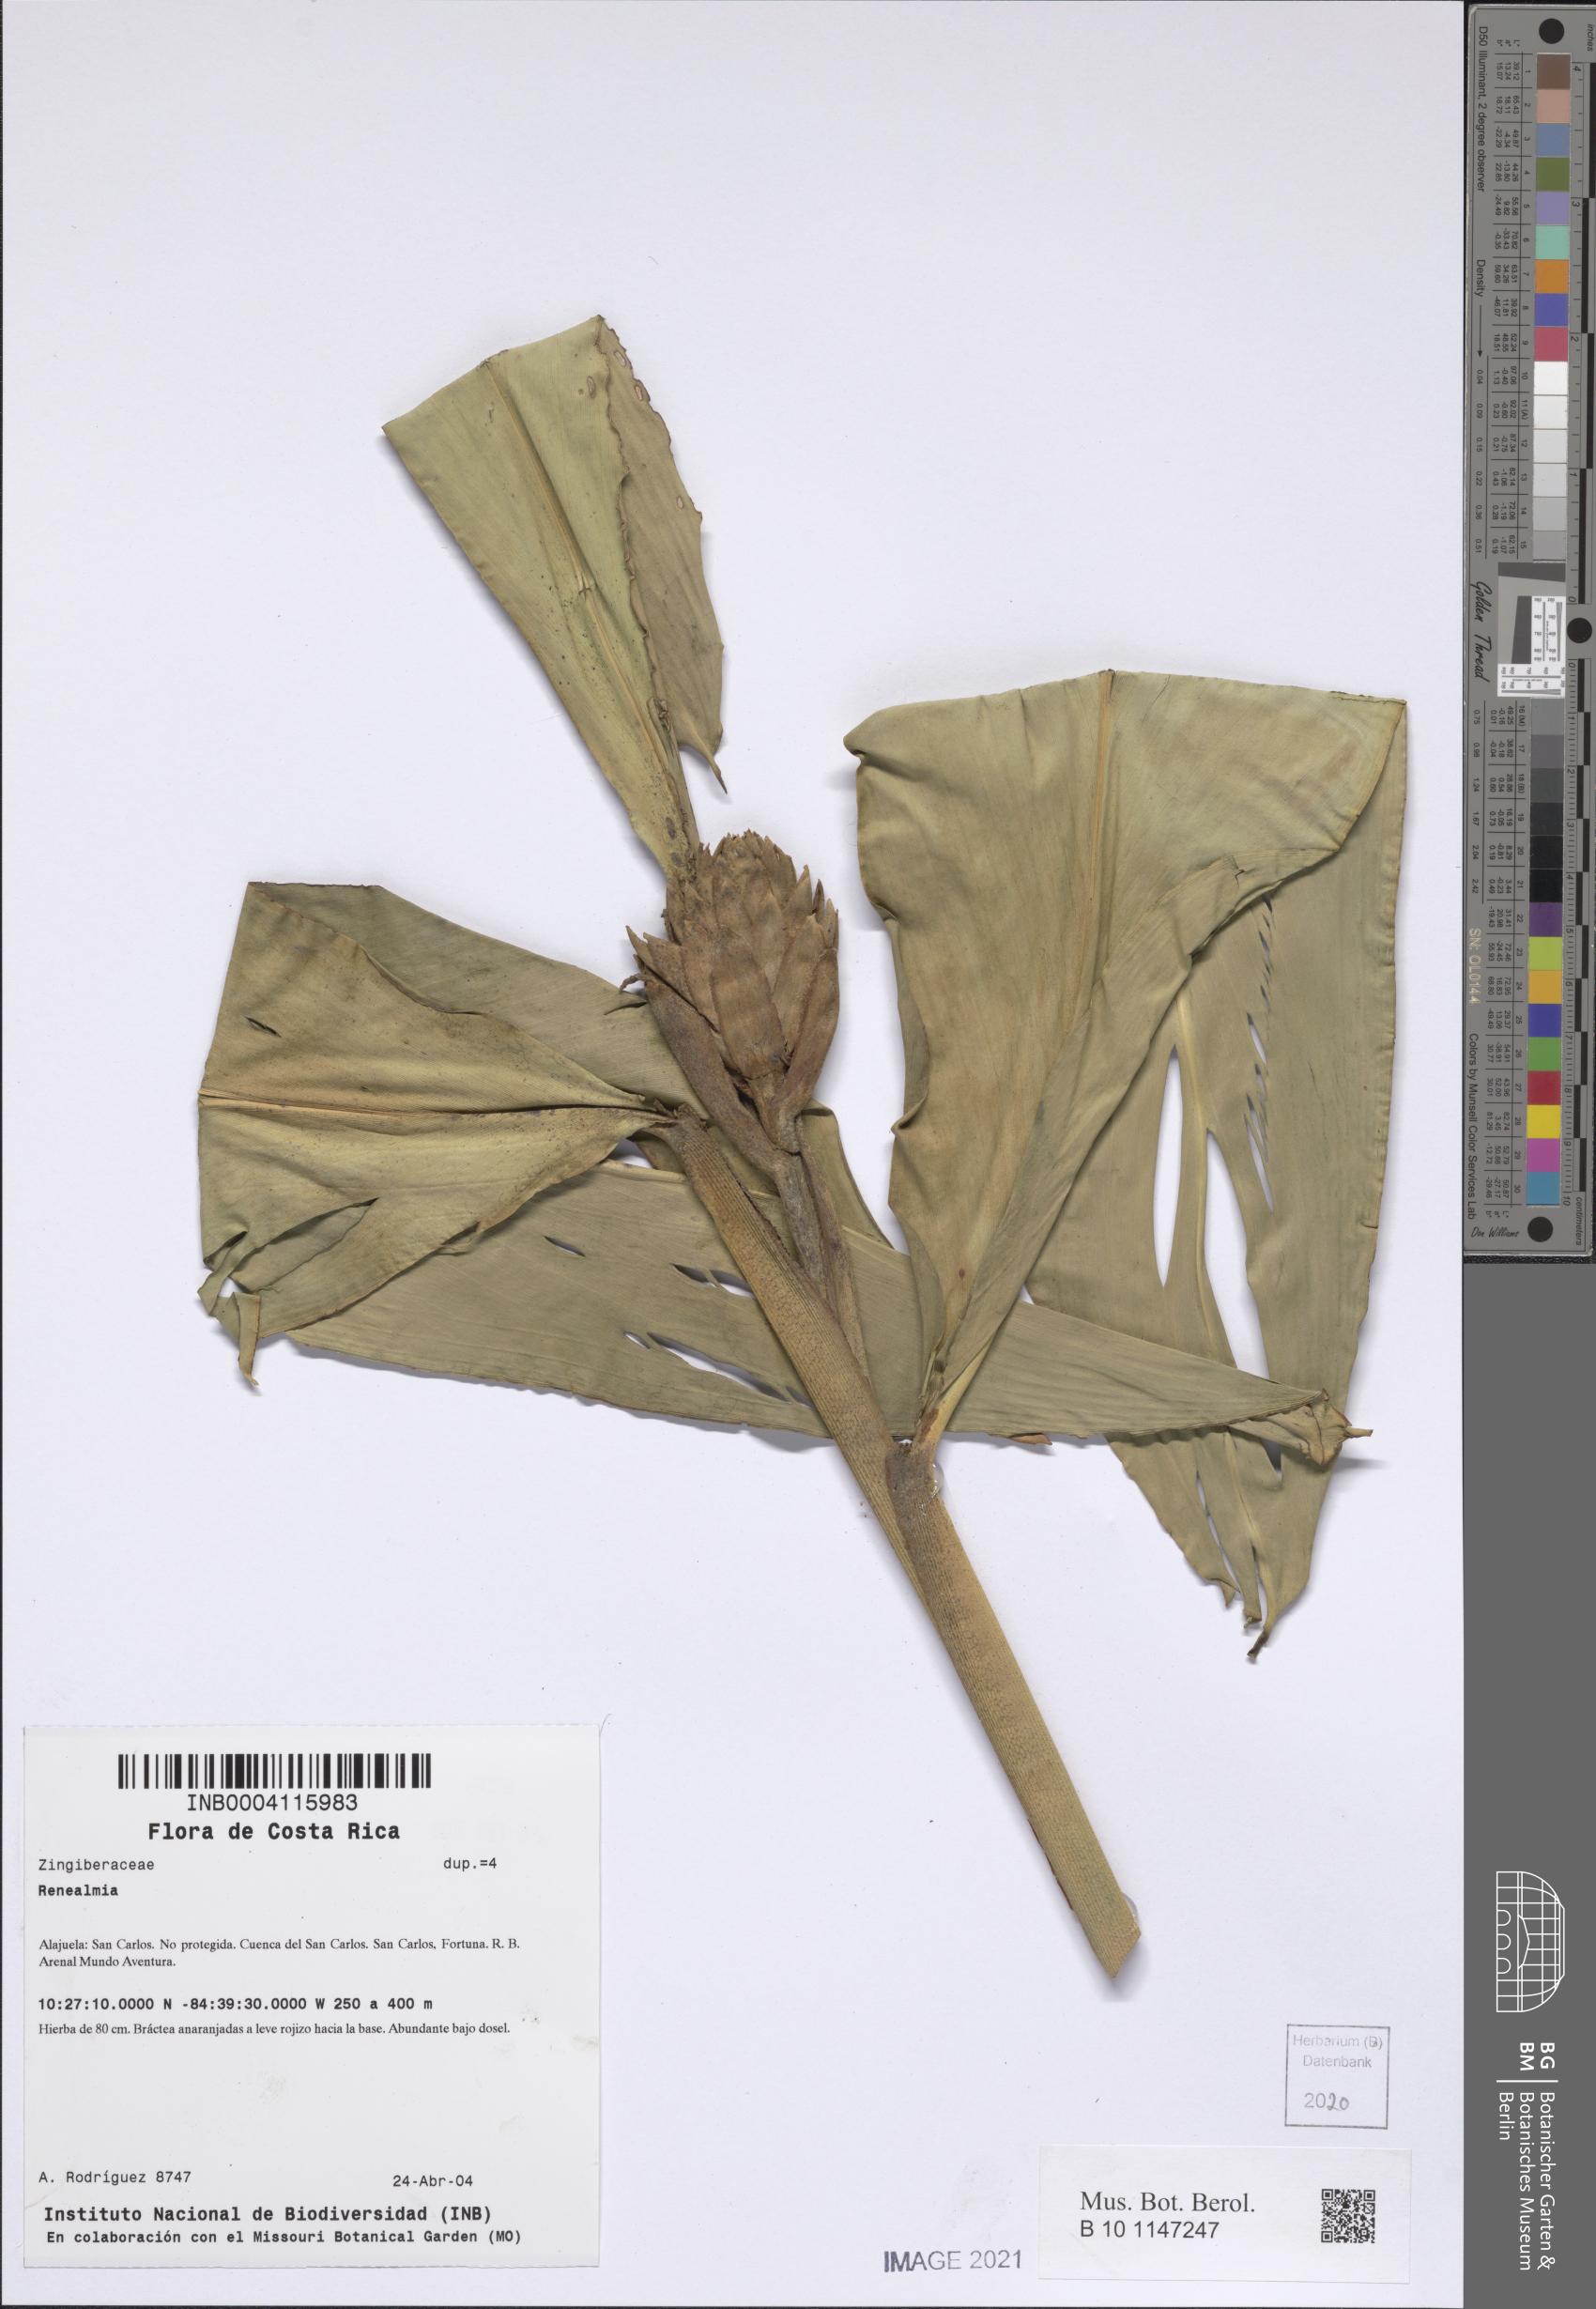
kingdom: Plantae
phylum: Tracheophyta
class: Liliopsida
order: Zingiberales
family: Zingiberaceae
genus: Renealmia
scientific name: Renealmia
